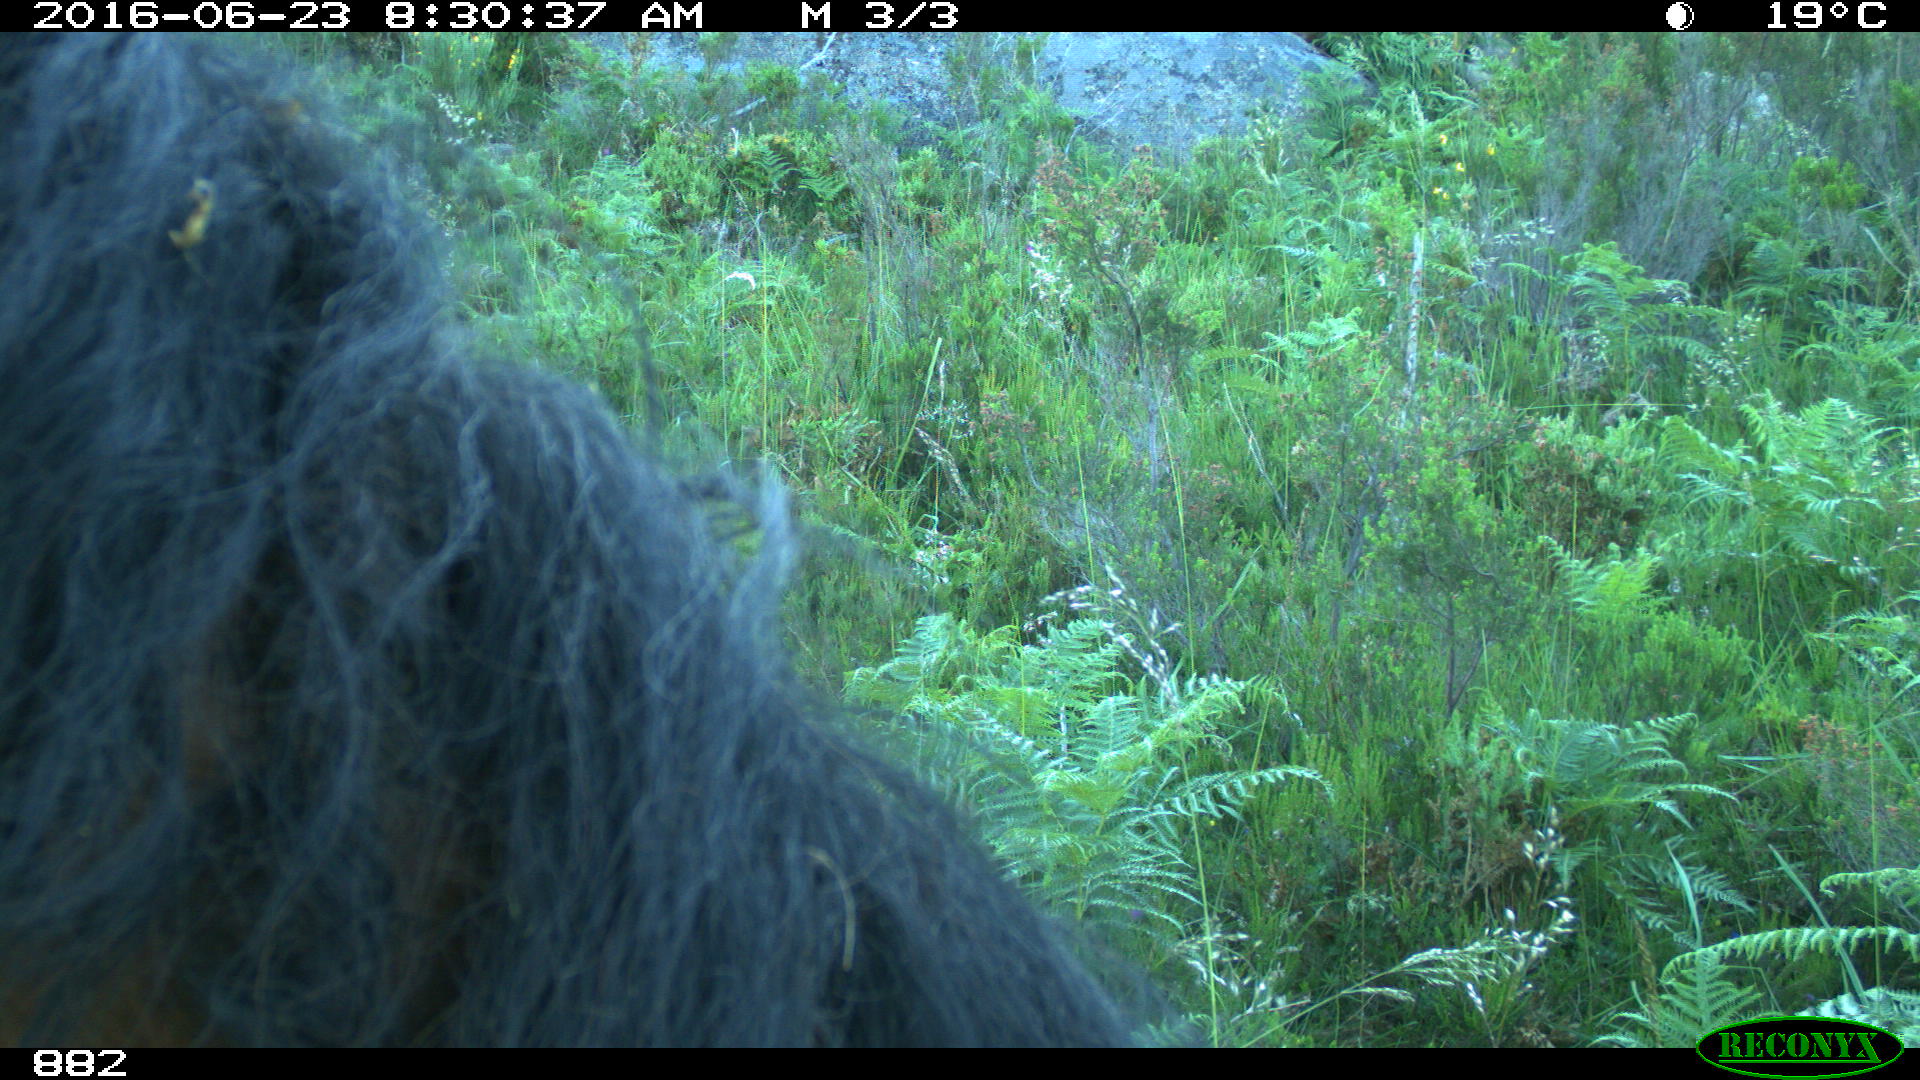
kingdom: Animalia
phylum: Chordata
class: Mammalia
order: Perissodactyla
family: Equidae
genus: Equus
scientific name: Equus caballus
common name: Horse
